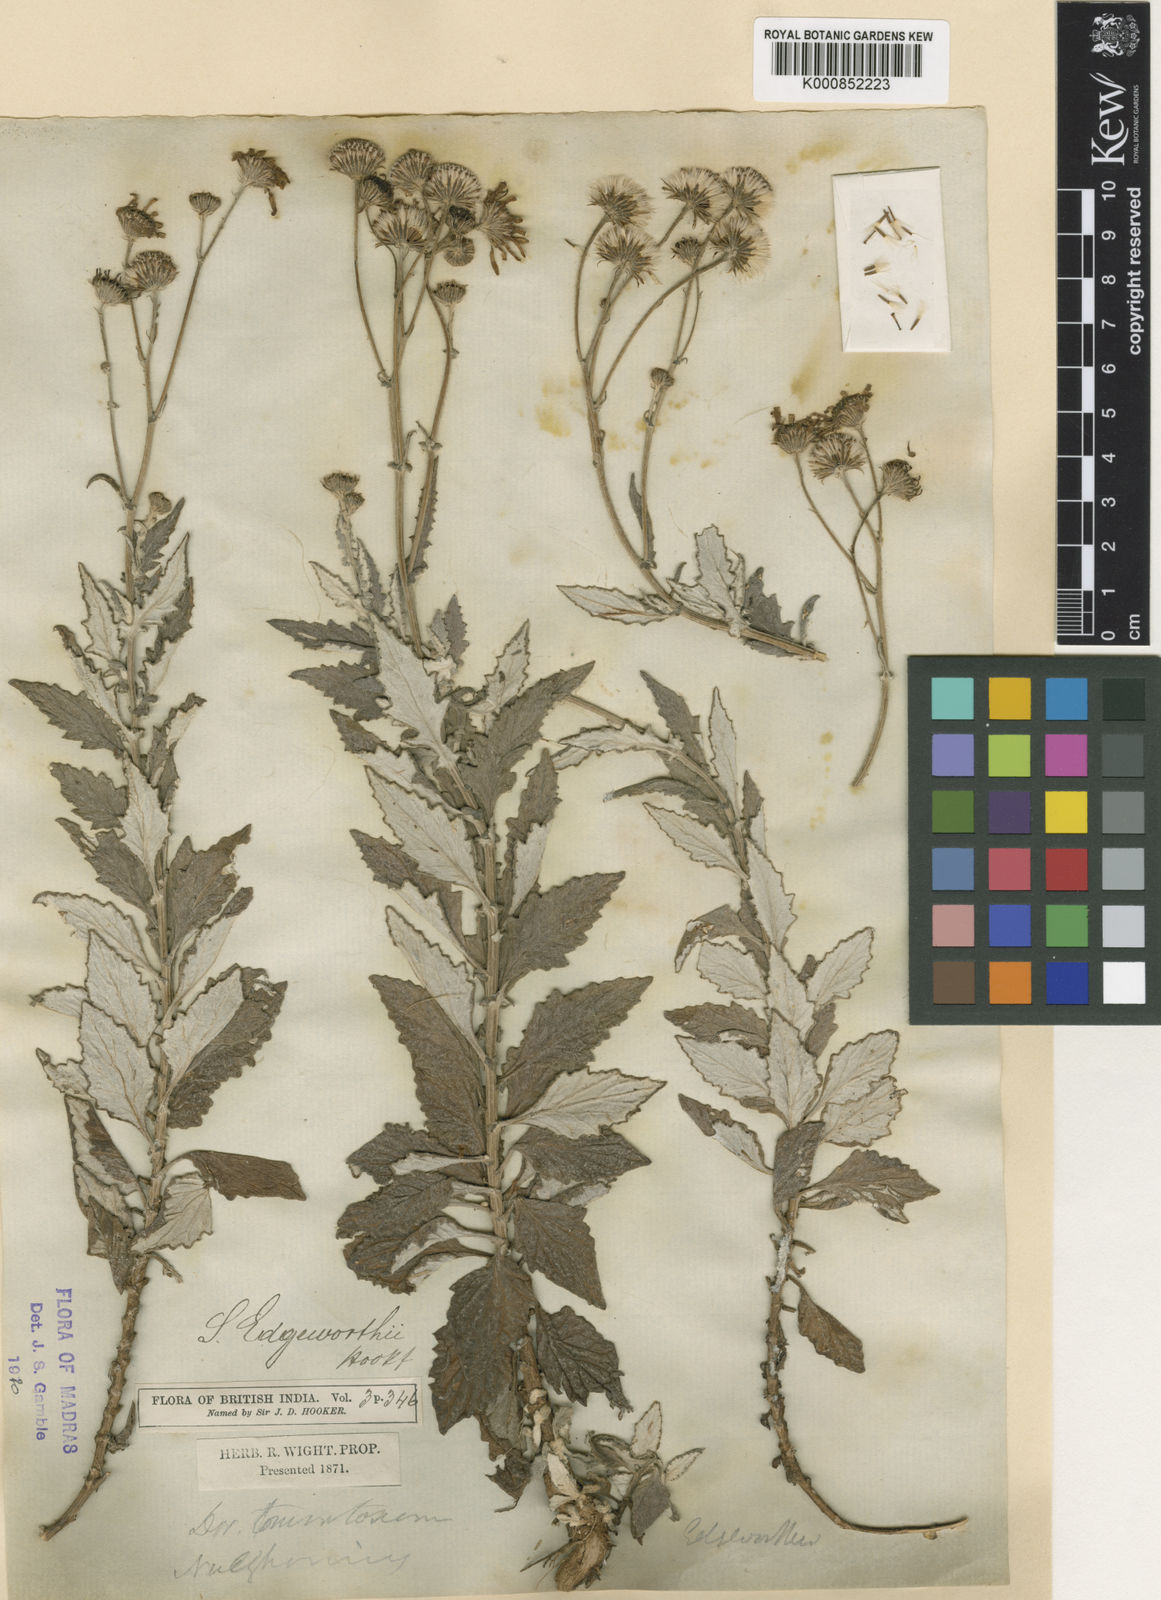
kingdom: Plantae
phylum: Tracheophyta
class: Magnoliopsida
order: Asterales
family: Asteraceae
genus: Senecio
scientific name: Senecio edgeworthii
